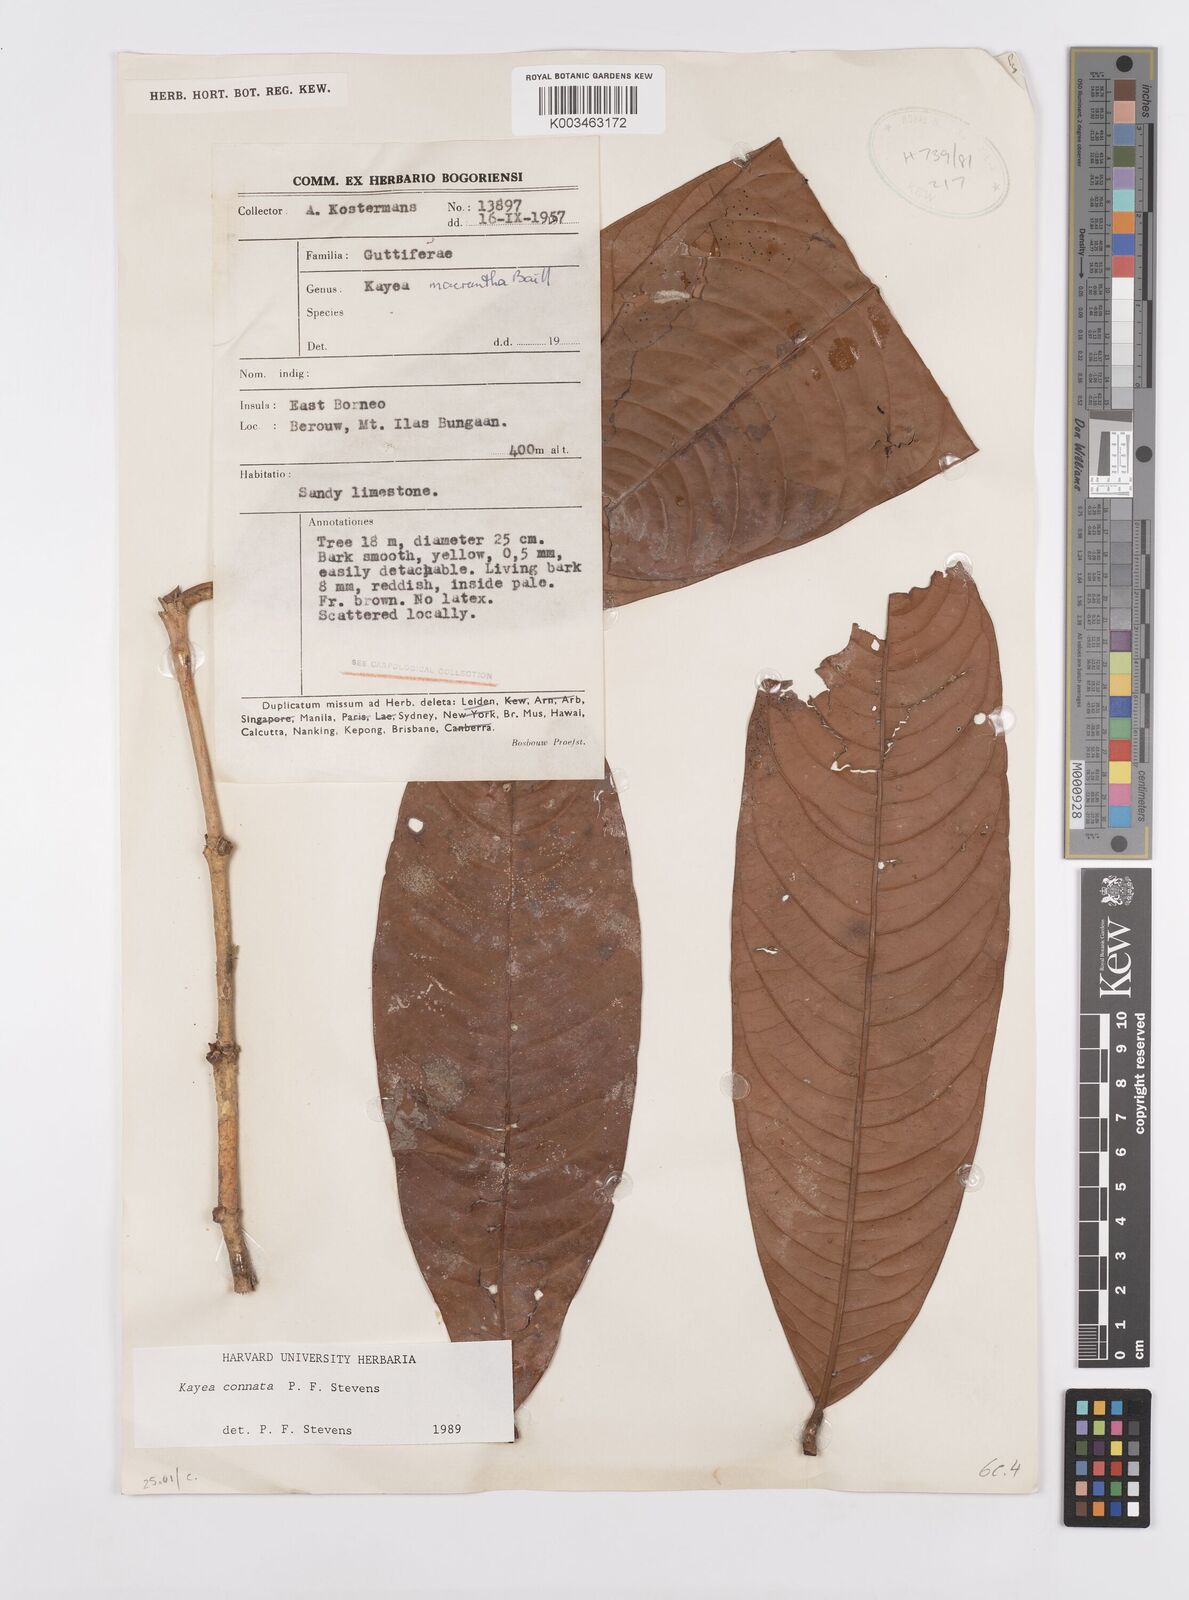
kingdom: Plantae
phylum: Tracheophyta
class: Magnoliopsida
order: Malpighiales
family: Calophyllaceae
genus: Kayea
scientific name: Kayea
